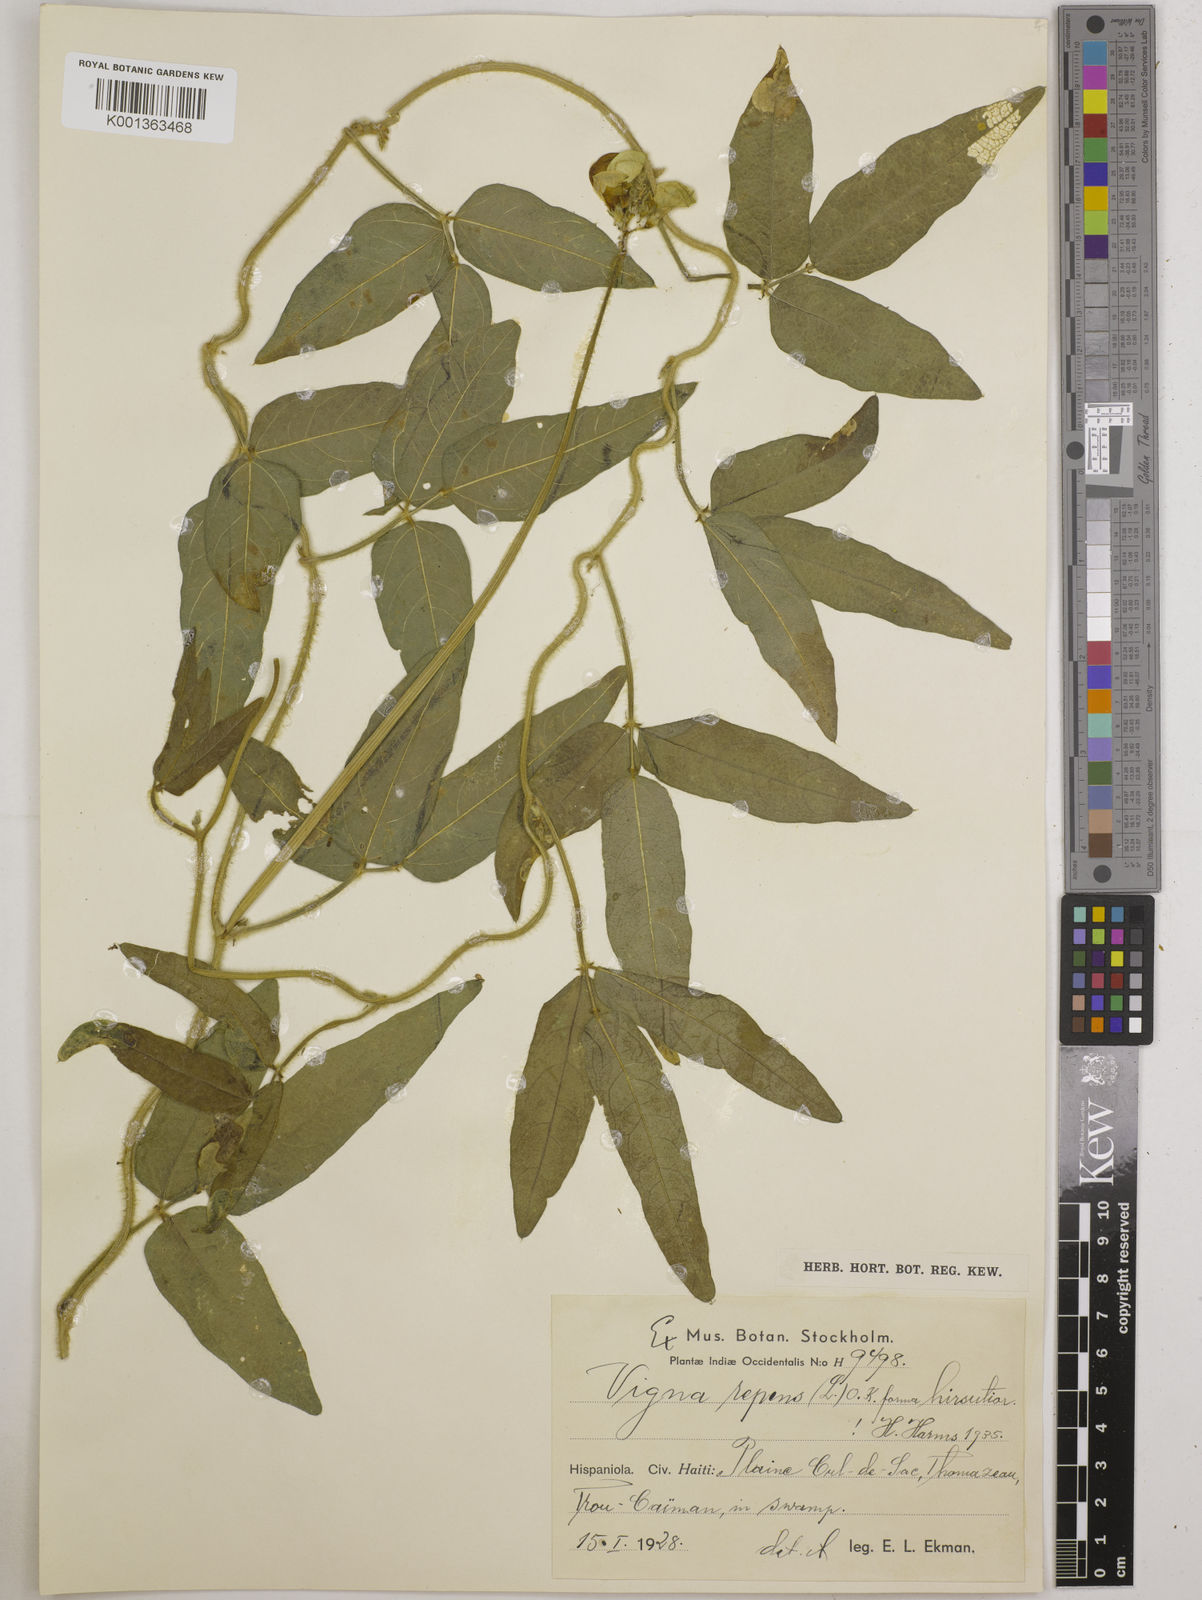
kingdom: Plantae
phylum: Tracheophyta
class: Magnoliopsida
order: Fabales
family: Fabaceae
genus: Vigna
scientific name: Vigna luteola
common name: Hairypod cowpea
